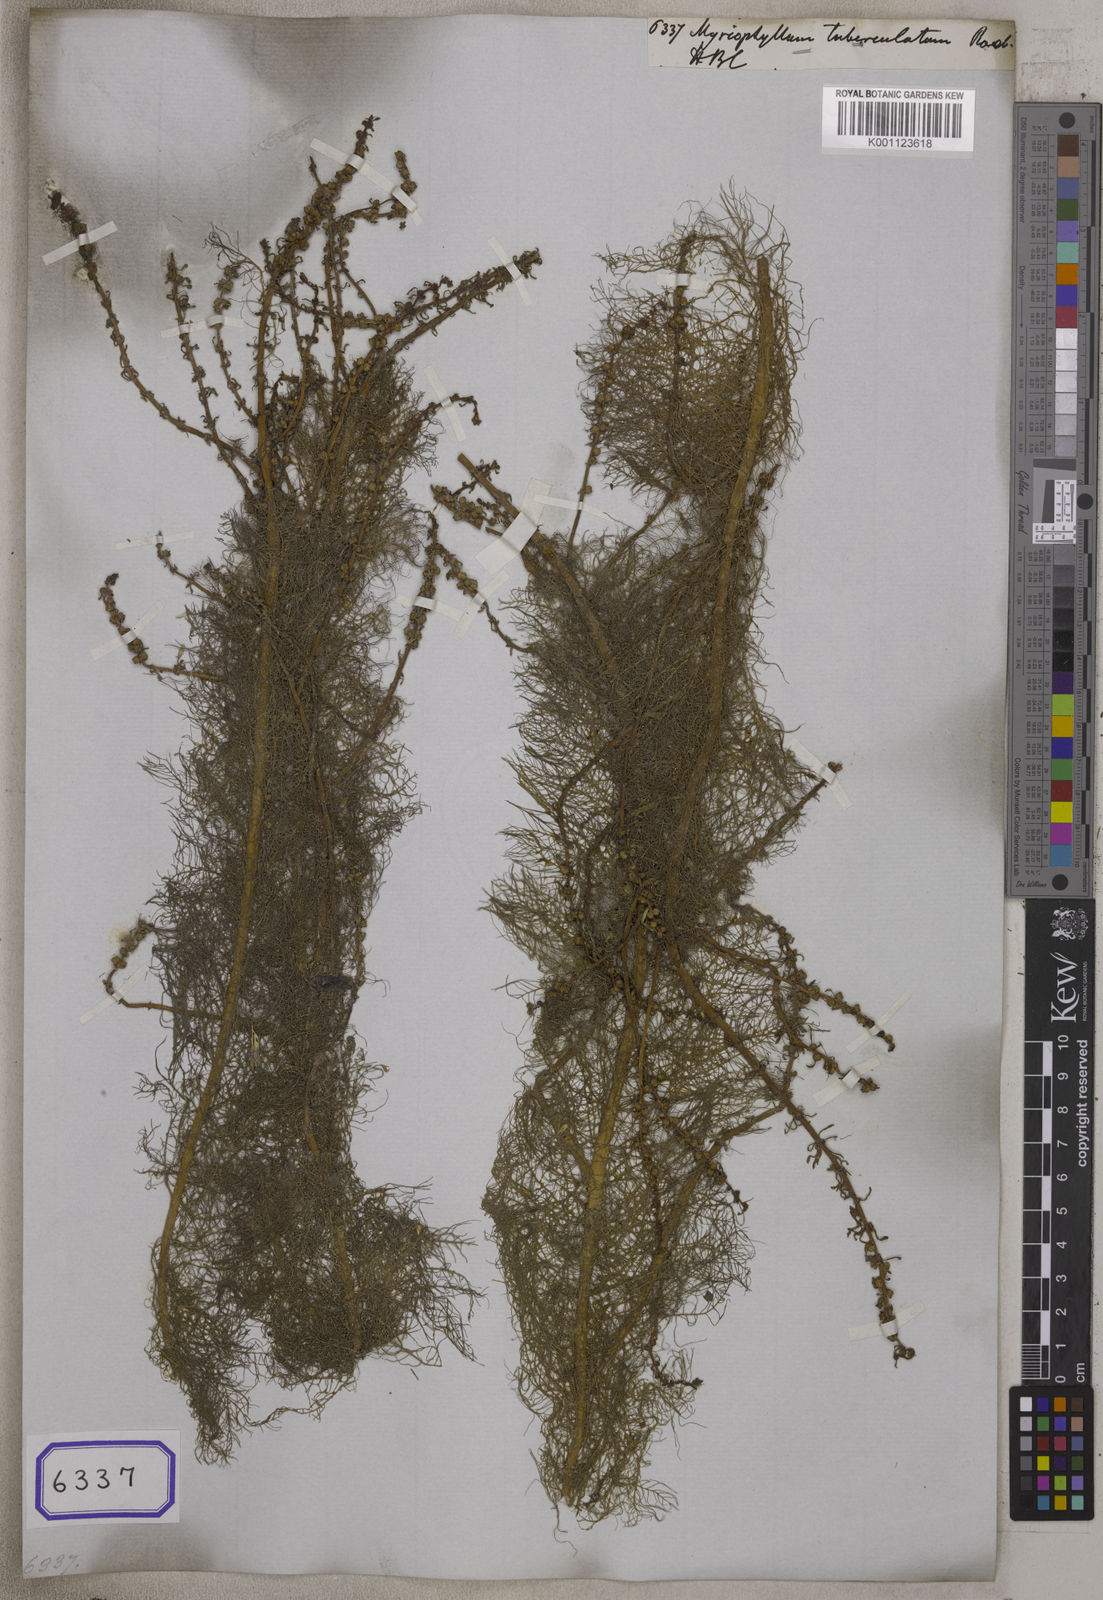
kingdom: Plantae
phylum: Tracheophyta
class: Magnoliopsida
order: Saxifragales
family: Haloragaceae
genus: Myriophyllum
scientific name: Myriophyllum tuberculatum
